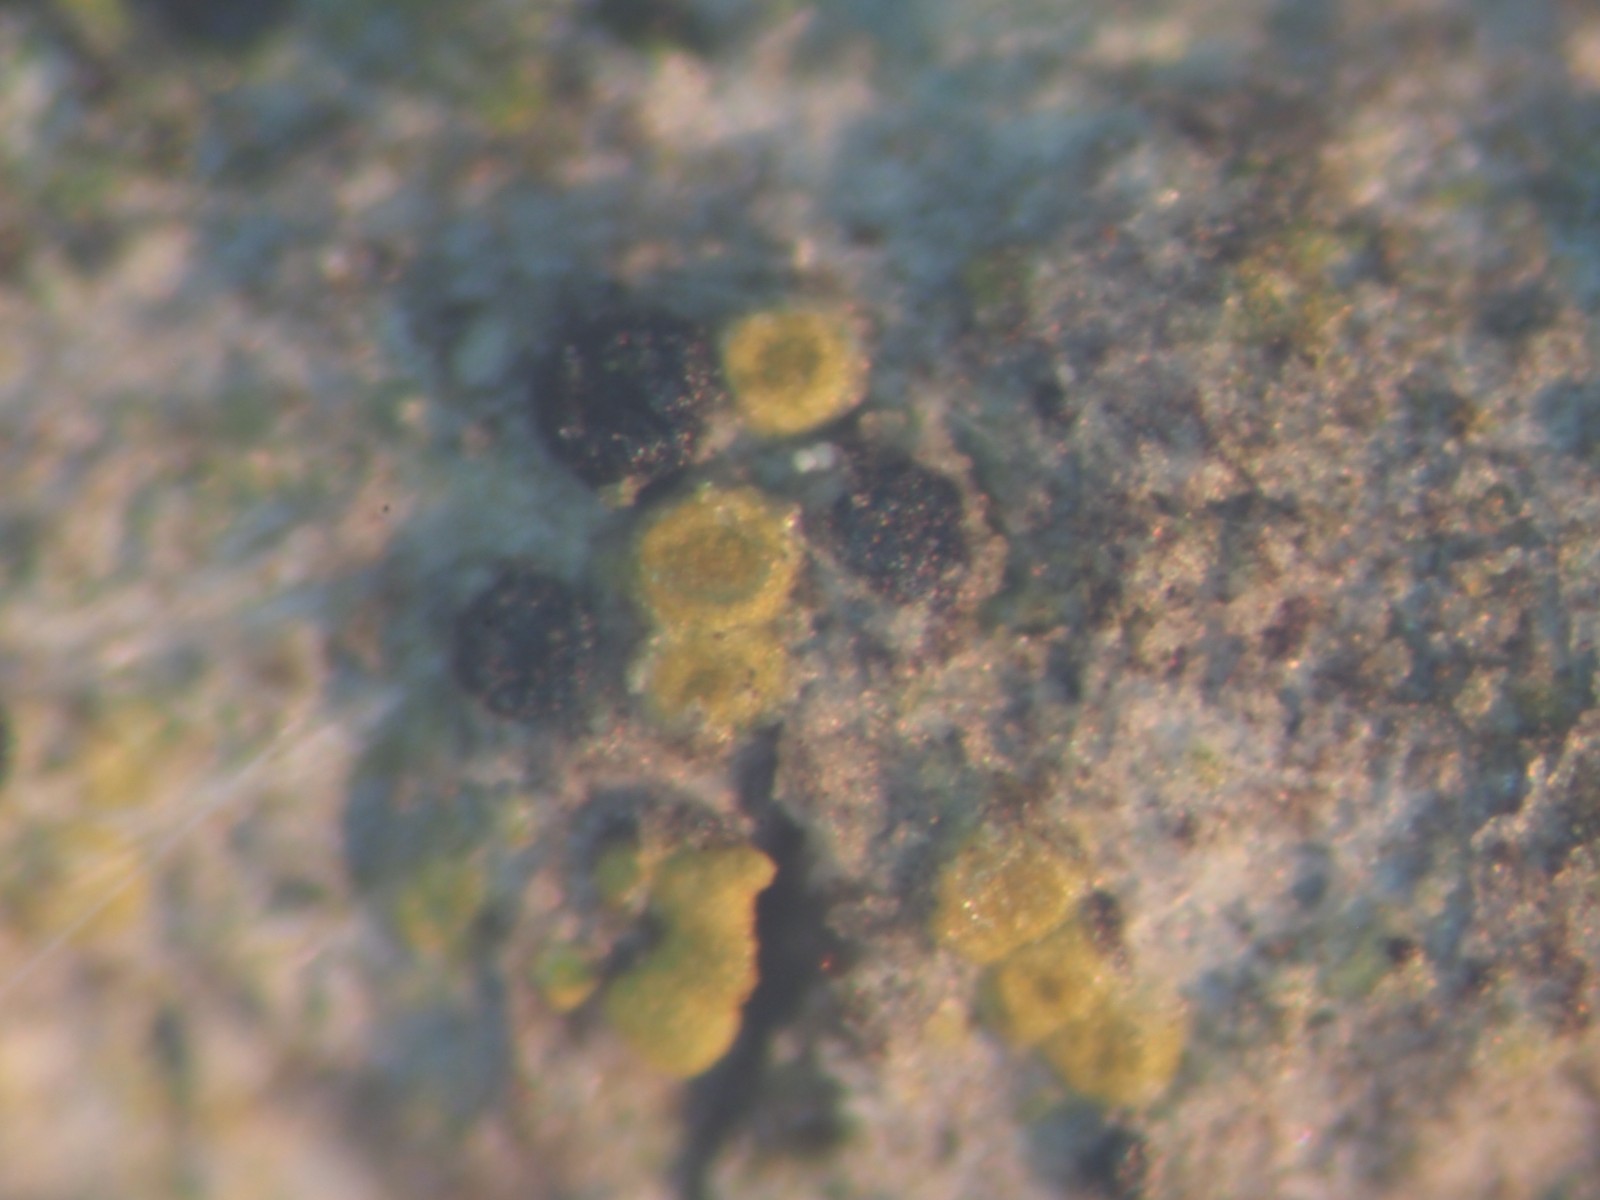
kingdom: Fungi
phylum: Ascomycota
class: Lecanoromycetes
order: Teloschistales
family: Teloschistaceae
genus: Athallia
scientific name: Athallia cerinella
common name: kvist-orangelav
